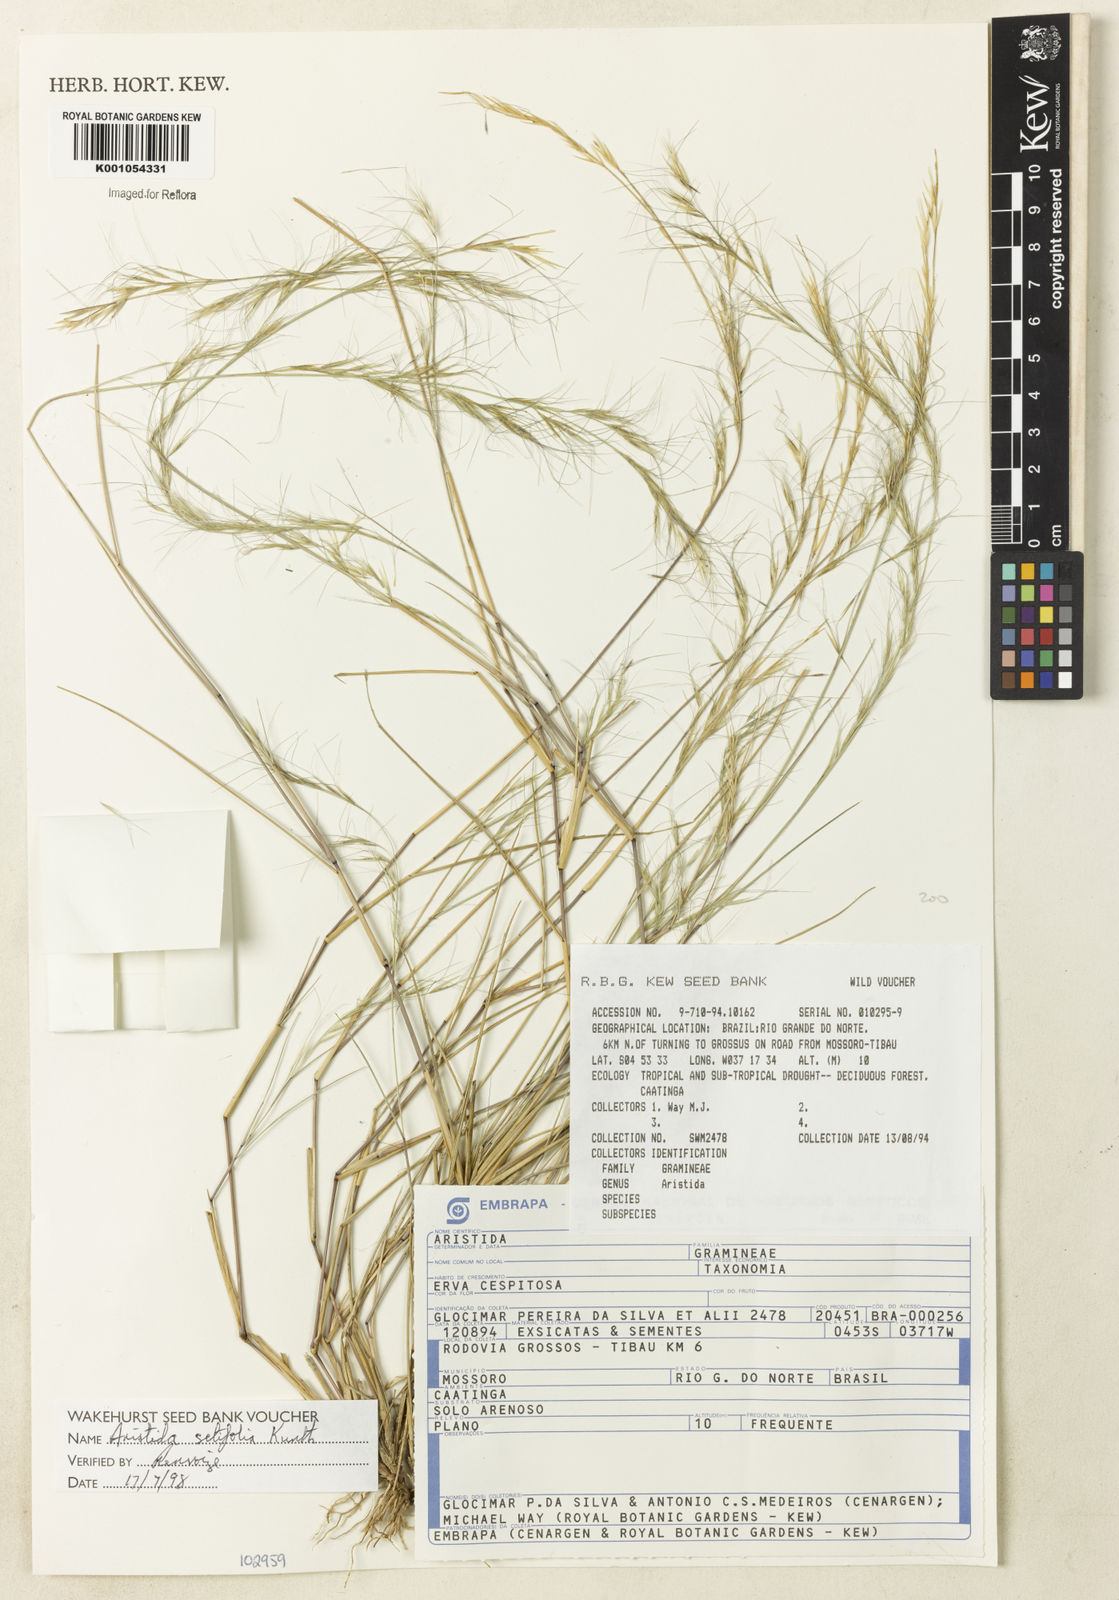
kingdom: Plantae
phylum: Tracheophyta
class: Liliopsida
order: Poales
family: Poaceae
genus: Aristida
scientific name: Aristida setifolia
